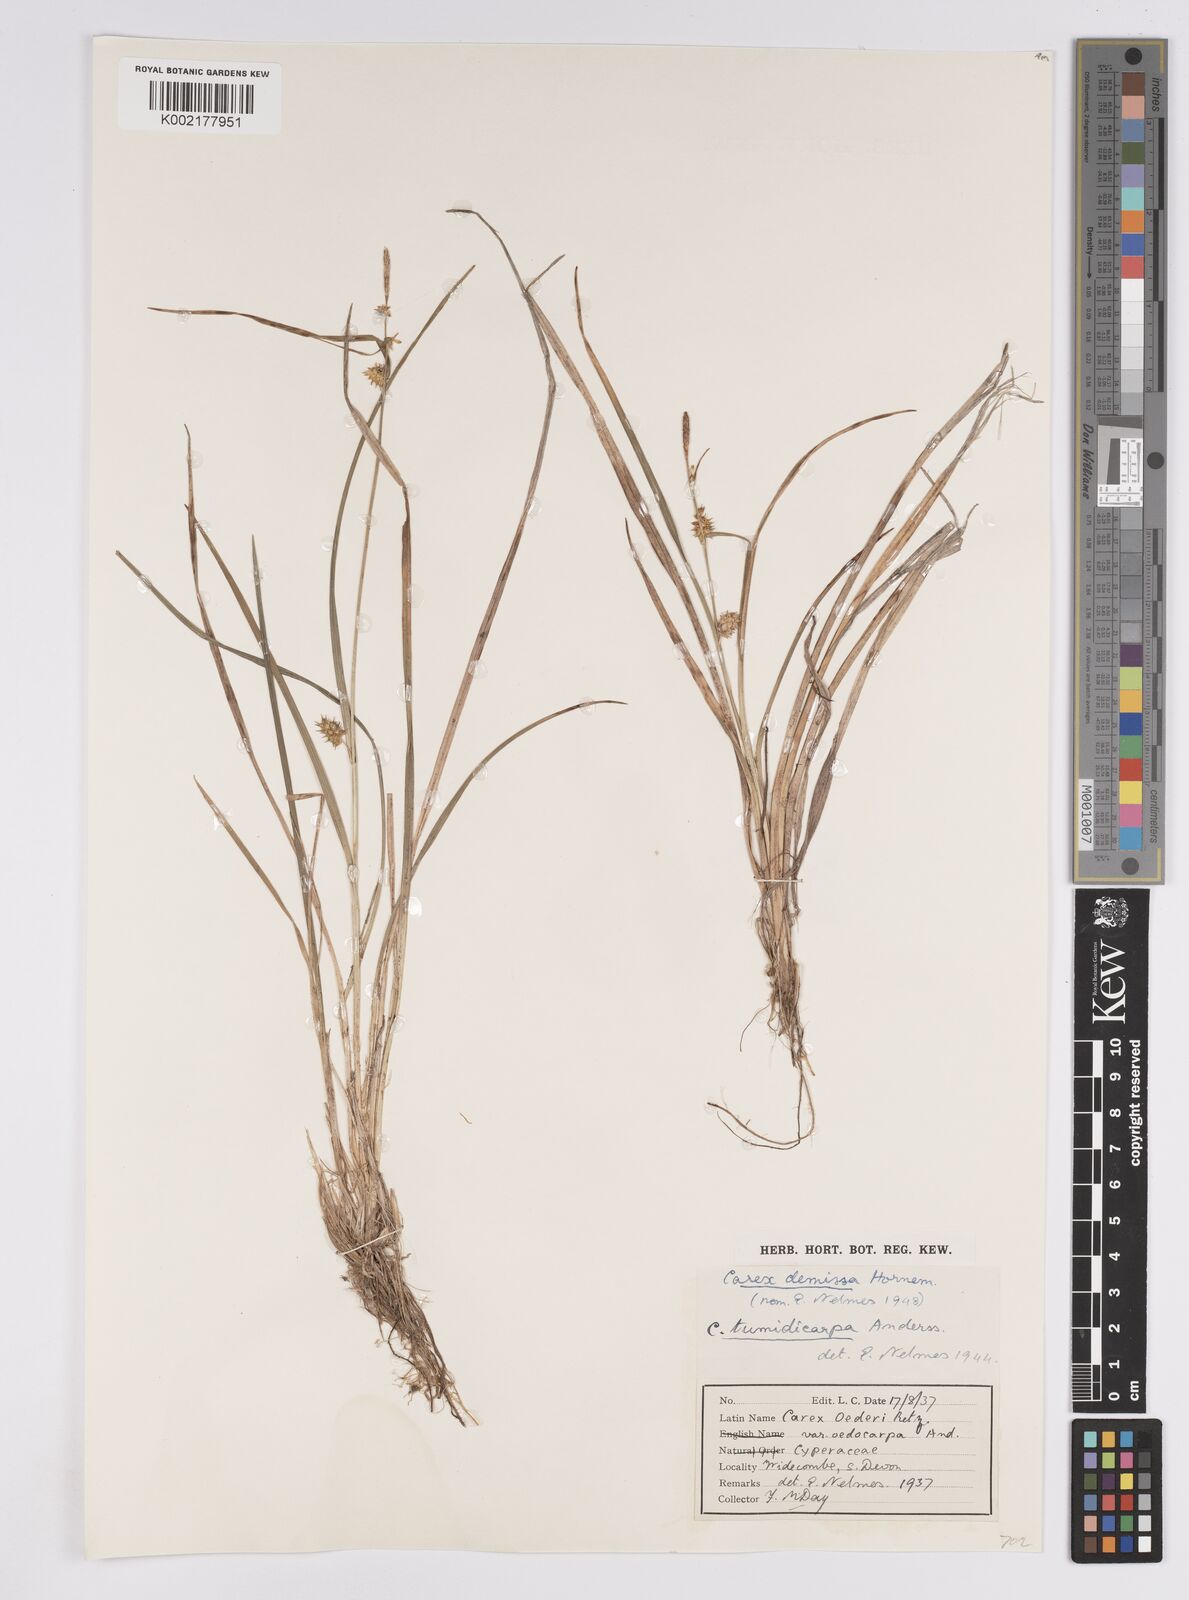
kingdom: Plantae
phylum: Tracheophyta
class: Liliopsida
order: Poales
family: Cyperaceae
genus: Carex
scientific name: Carex demissa
